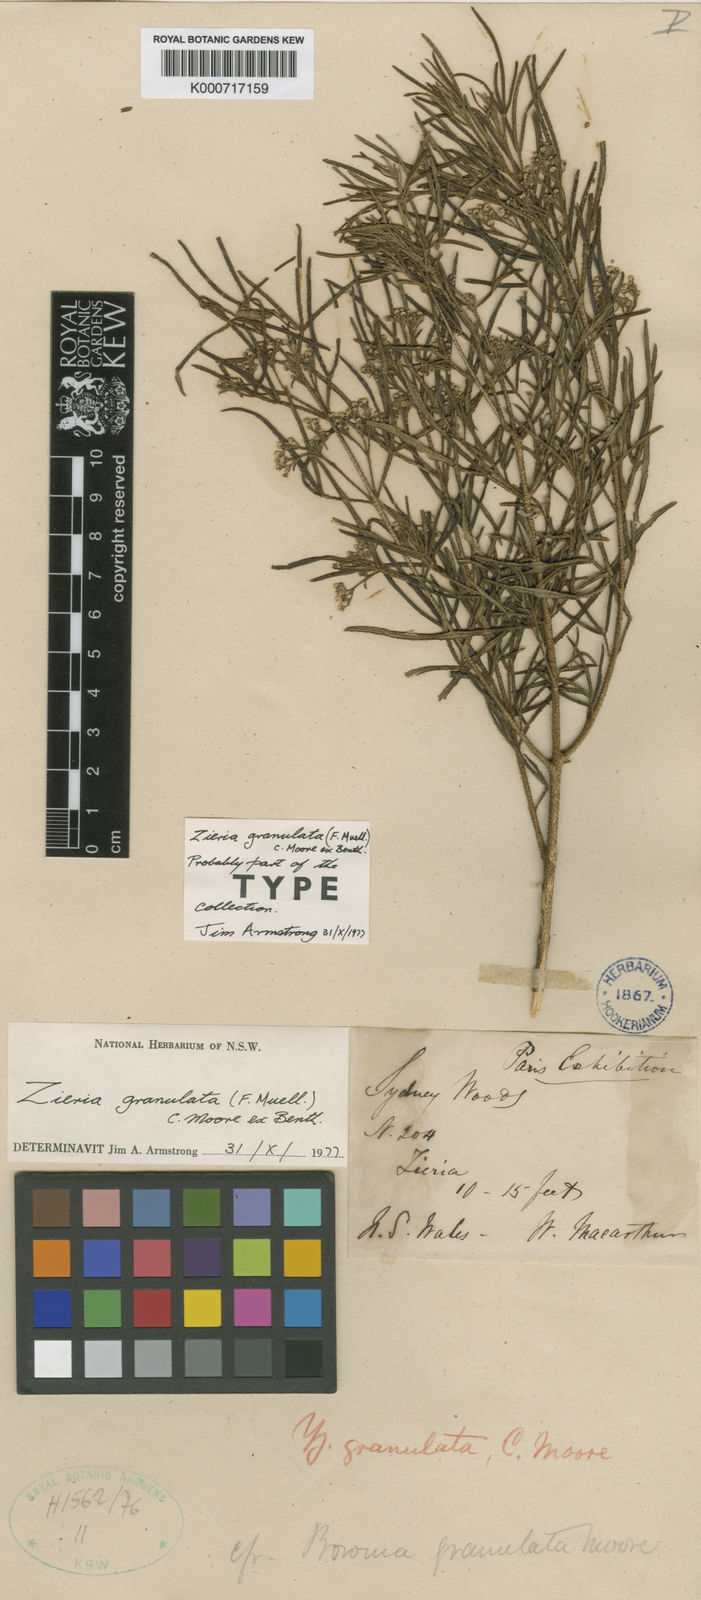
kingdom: Plantae
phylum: Tracheophyta
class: Magnoliopsida
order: Sapindales
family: Rutaceae
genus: Zieria
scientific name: Zieria granulata
